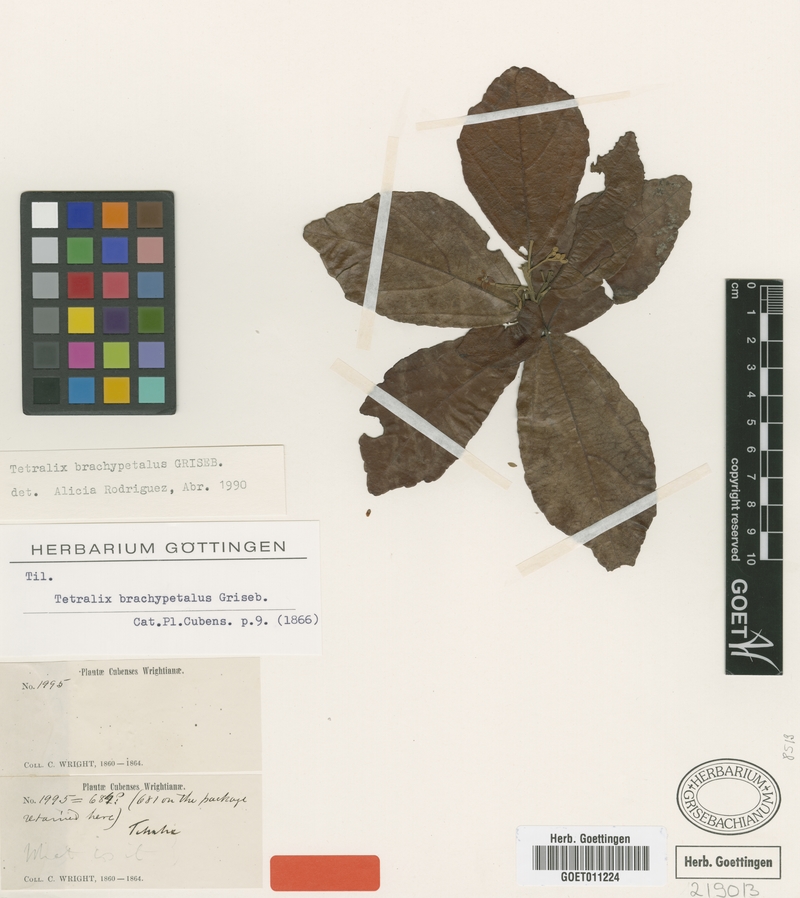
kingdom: Plantae
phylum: Tracheophyta
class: Magnoliopsida
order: Malvales
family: Malvaceae
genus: Tetralix
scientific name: Tetralix brachypetalus
